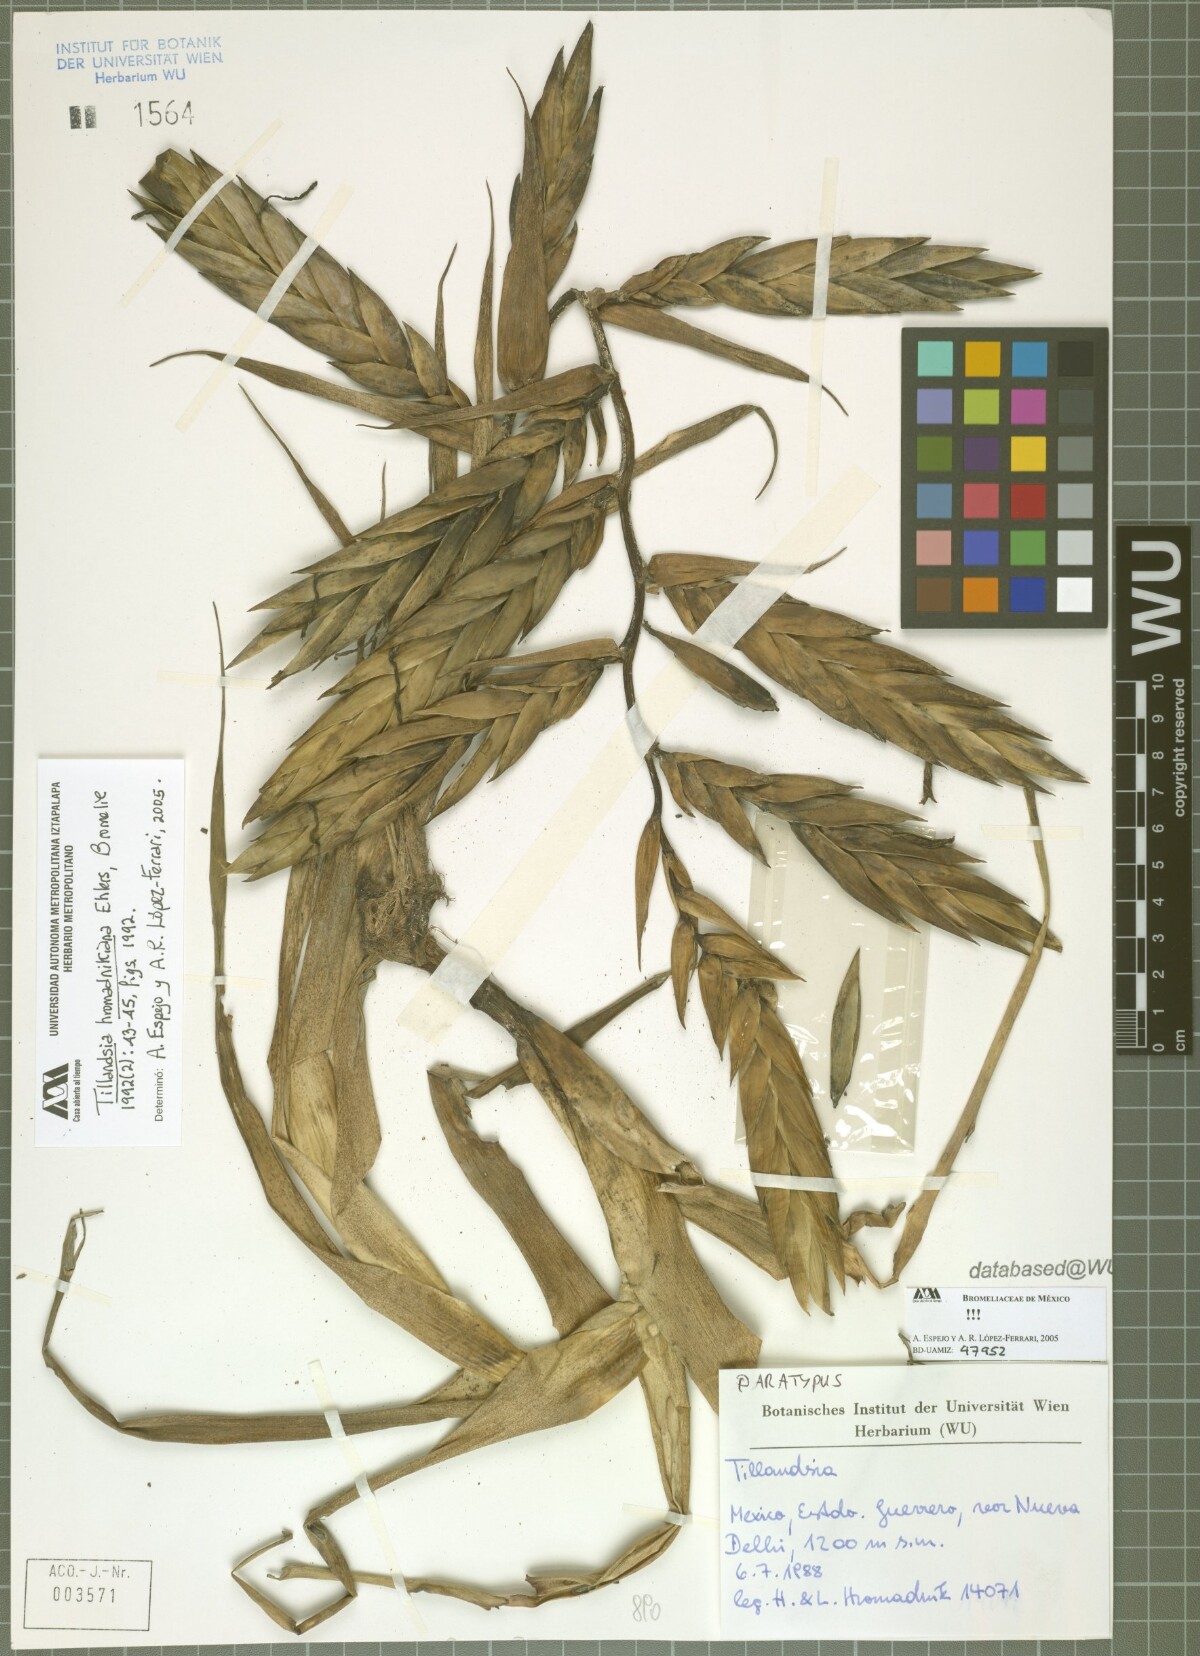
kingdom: Plantae
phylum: Tracheophyta
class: Liliopsida
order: Poales
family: Bromeliaceae
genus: Tillandsia
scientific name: Tillandsia prodigiosa
